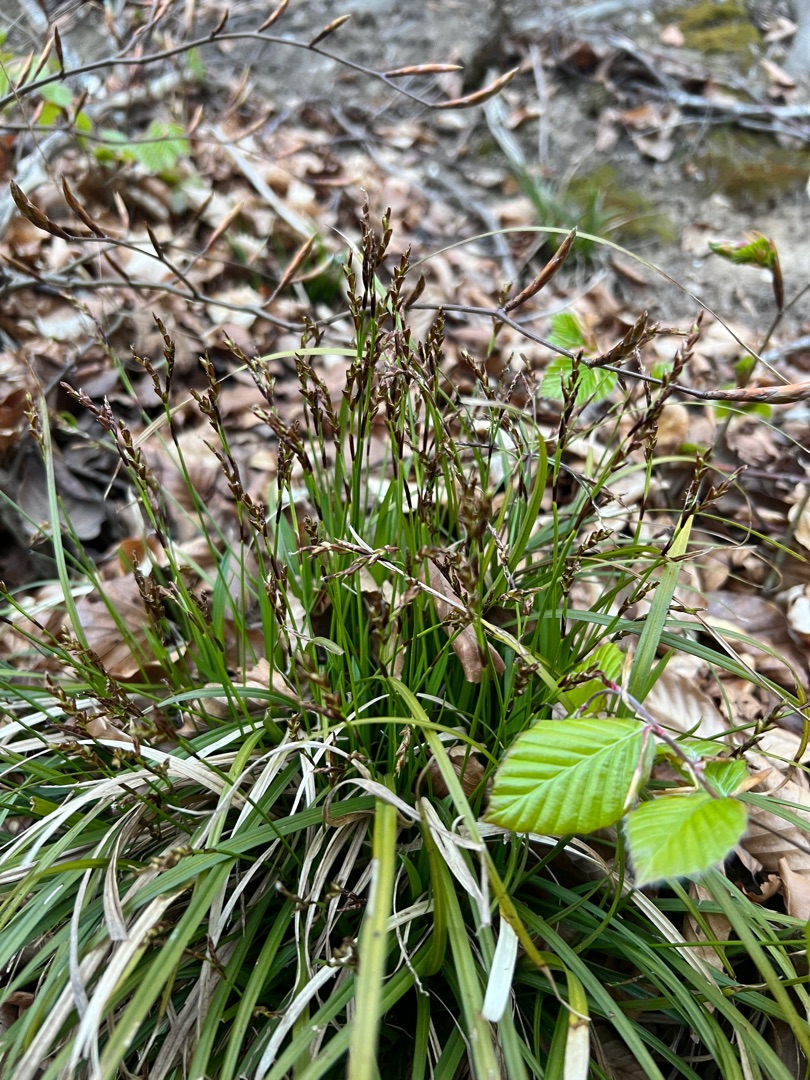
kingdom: Plantae
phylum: Tracheophyta
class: Liliopsida
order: Poales
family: Cyperaceae
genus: Carex
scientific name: Carex digitata
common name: Finger-star
